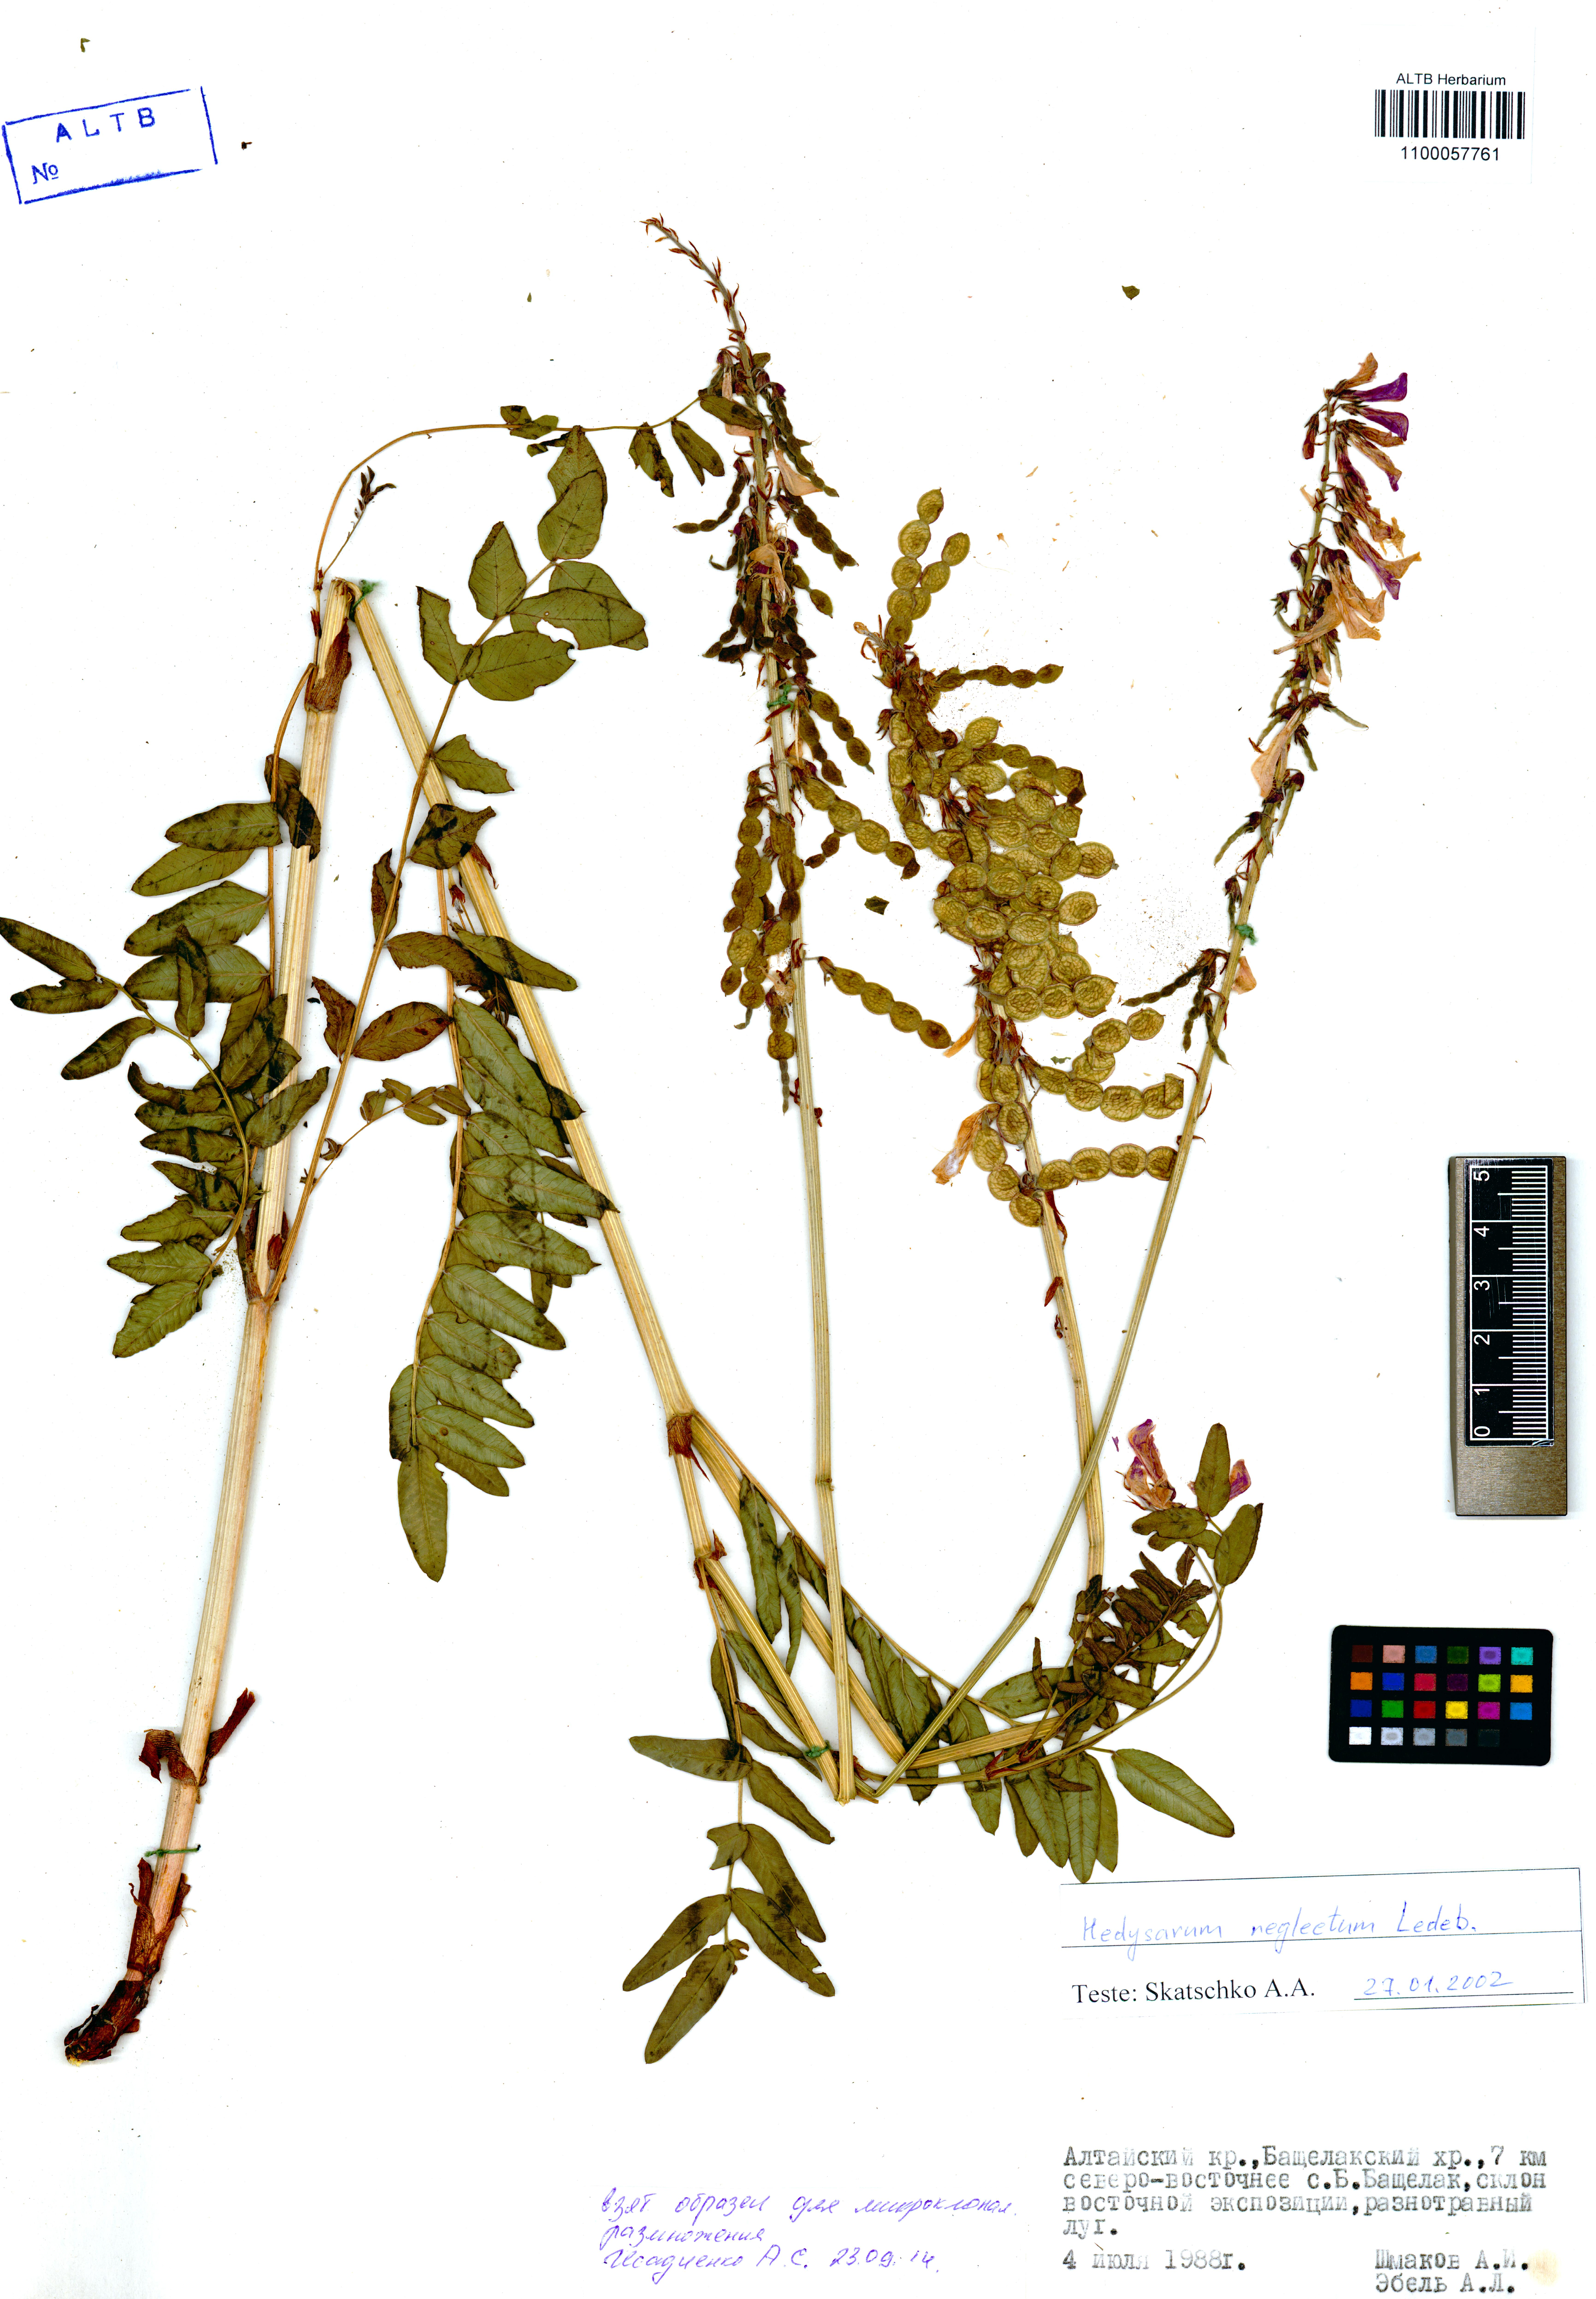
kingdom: Plantae
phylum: Tracheophyta
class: Magnoliopsida
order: Fabales
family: Fabaceae
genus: Hedysarum
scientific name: Hedysarum neglectum
